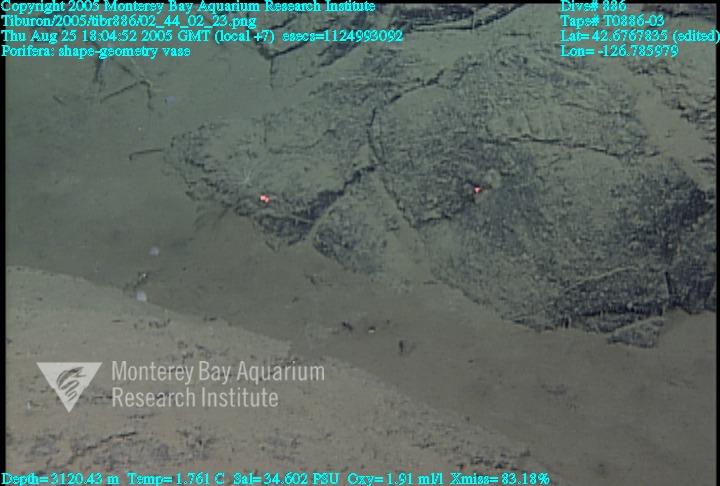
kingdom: Animalia
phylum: Porifera
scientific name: Porifera
